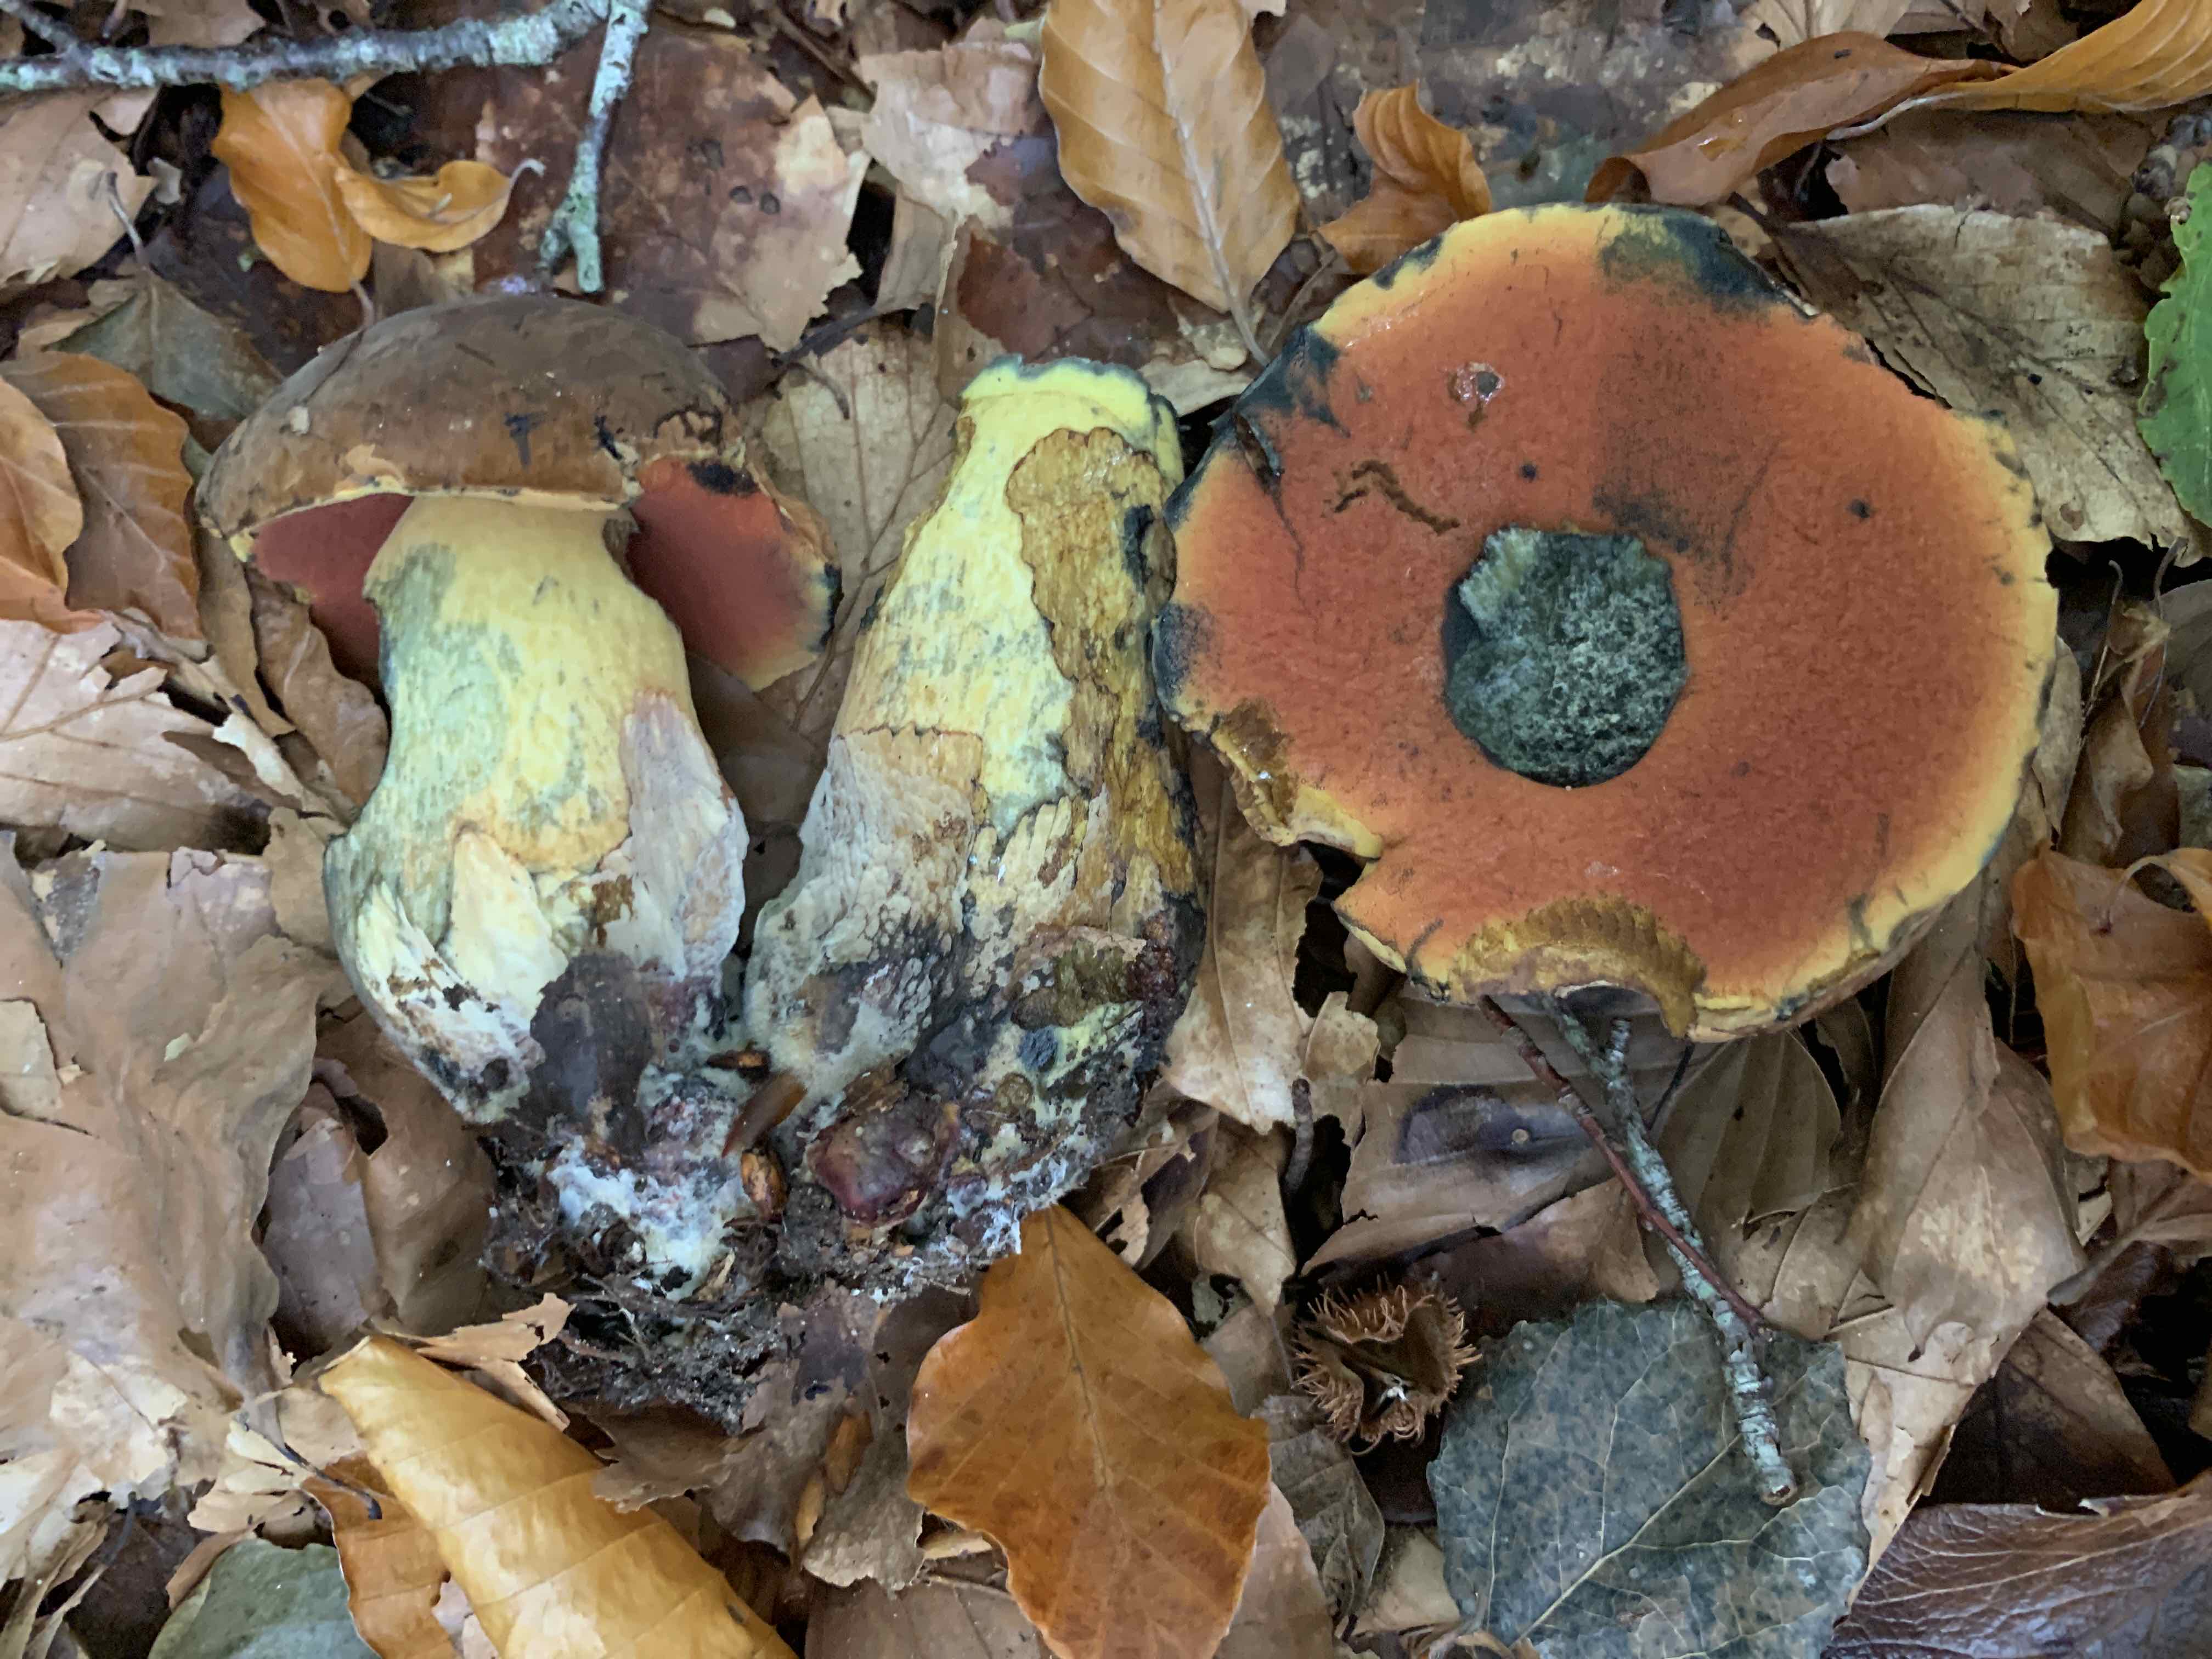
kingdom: Fungi
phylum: Basidiomycota
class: Agaricomycetes
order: Boletales
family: Boletaceae
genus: Neoboletus
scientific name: Neoboletus xanthopus
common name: finprikket indigorørhat
